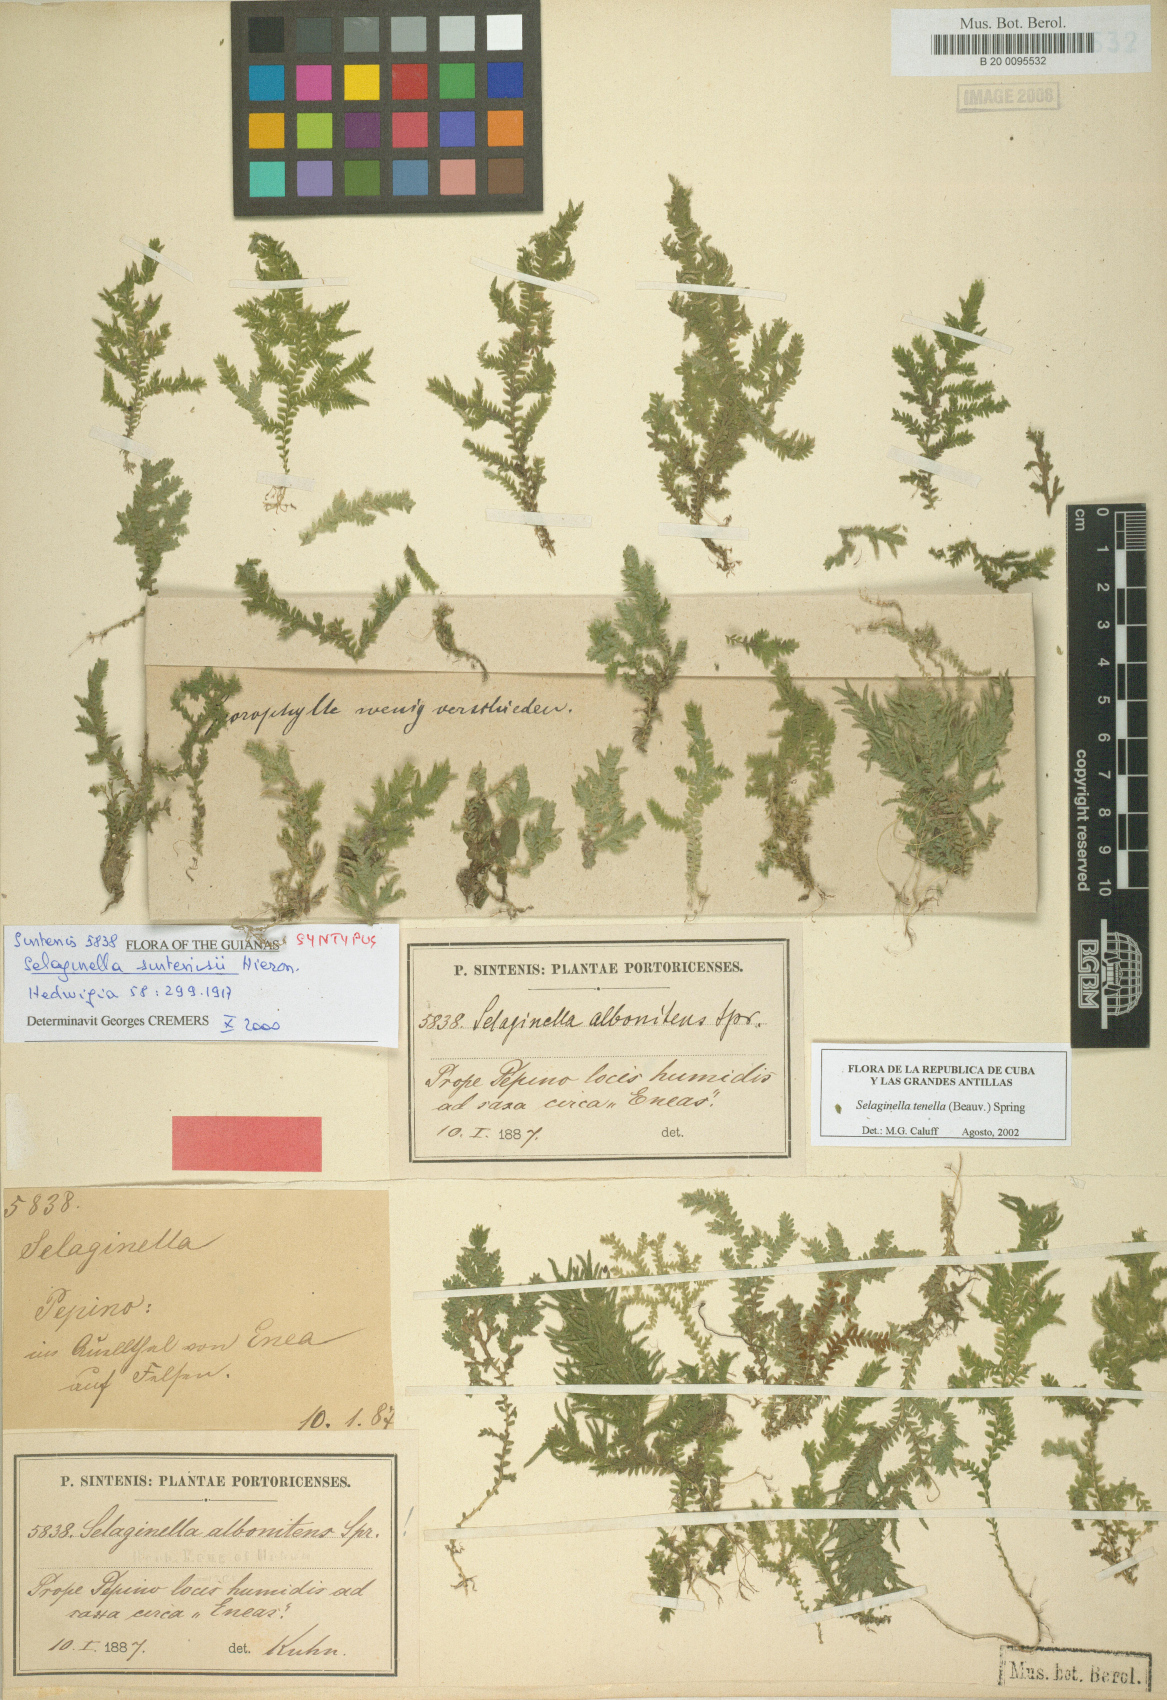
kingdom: Plantae
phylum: Tracheophyta
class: Lycopodiopsida
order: Selaginellales
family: Selaginellaceae
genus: Selaginella
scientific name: Selaginella tenella
